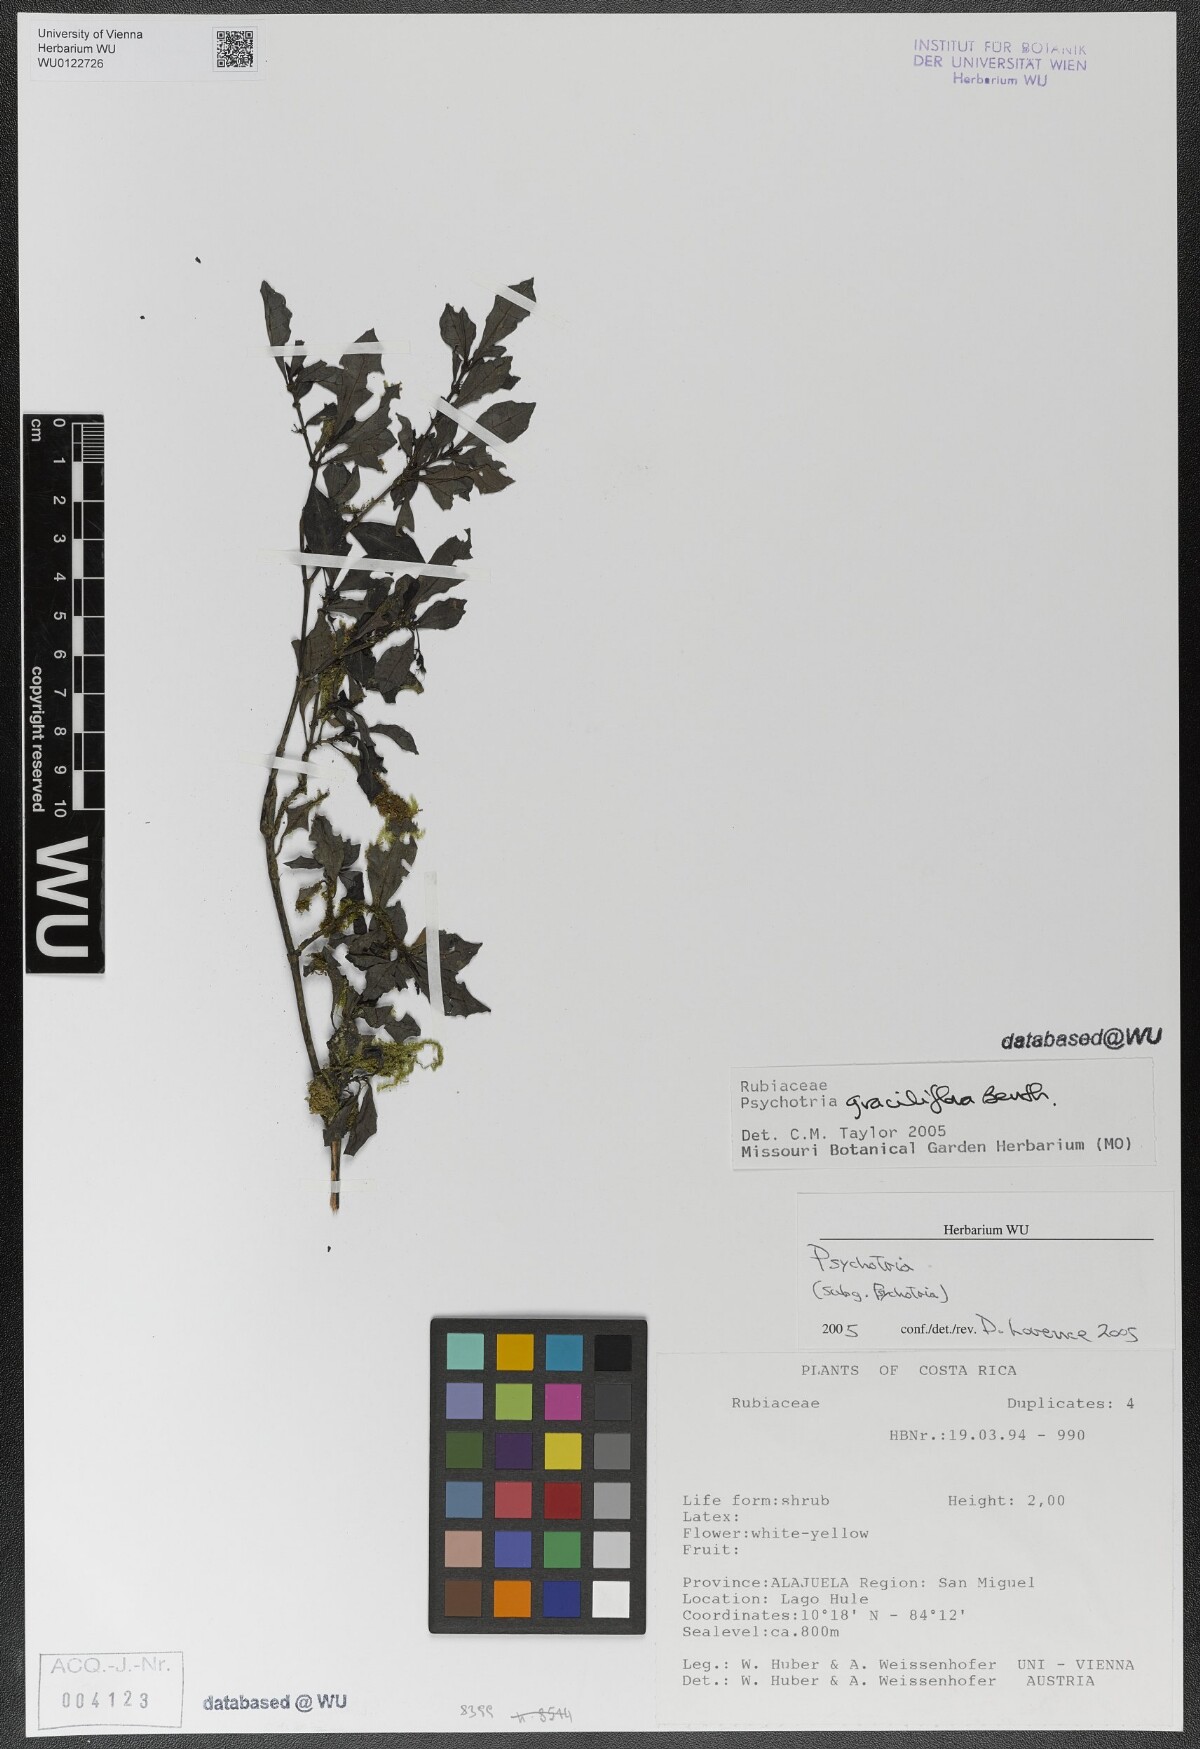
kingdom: Plantae
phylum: Tracheophyta
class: Magnoliopsida
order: Gentianales
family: Rubiaceae
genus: Psychotria
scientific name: Psychotria biaristata
